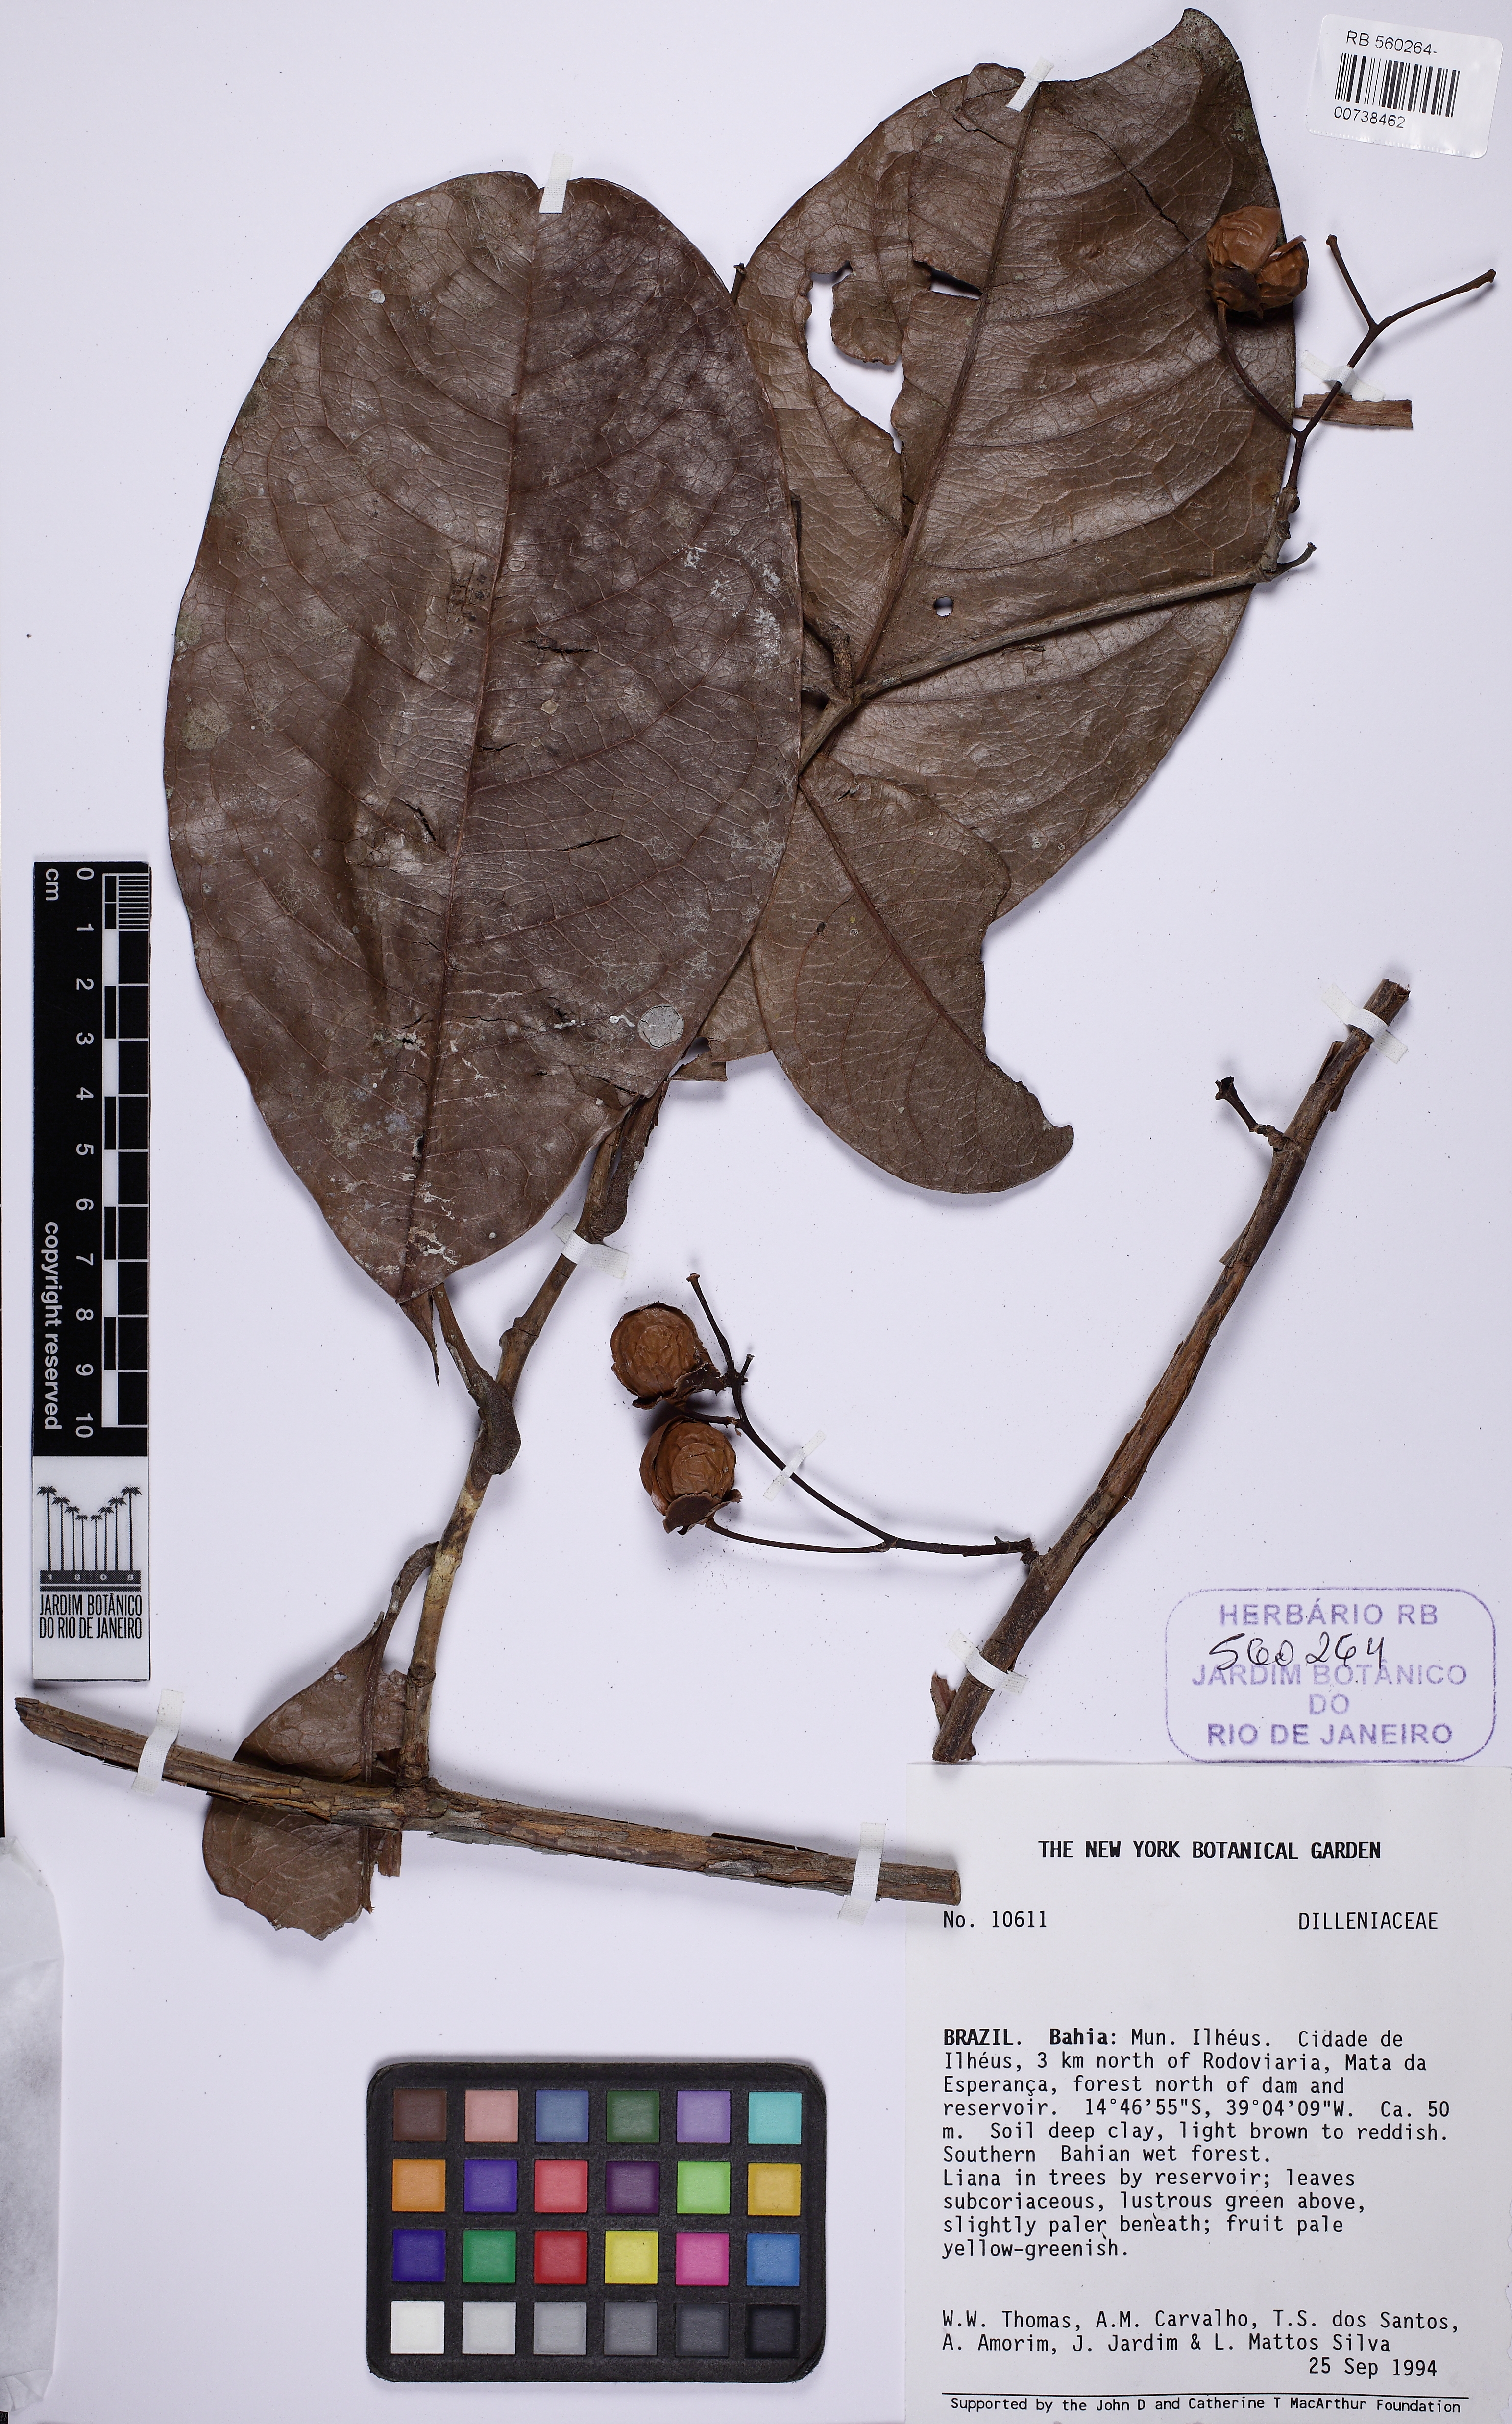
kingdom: Plantae
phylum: Tracheophyta
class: Magnoliopsida
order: Dilleniales
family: Dilleniaceae
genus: Davilla
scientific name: Davilla
